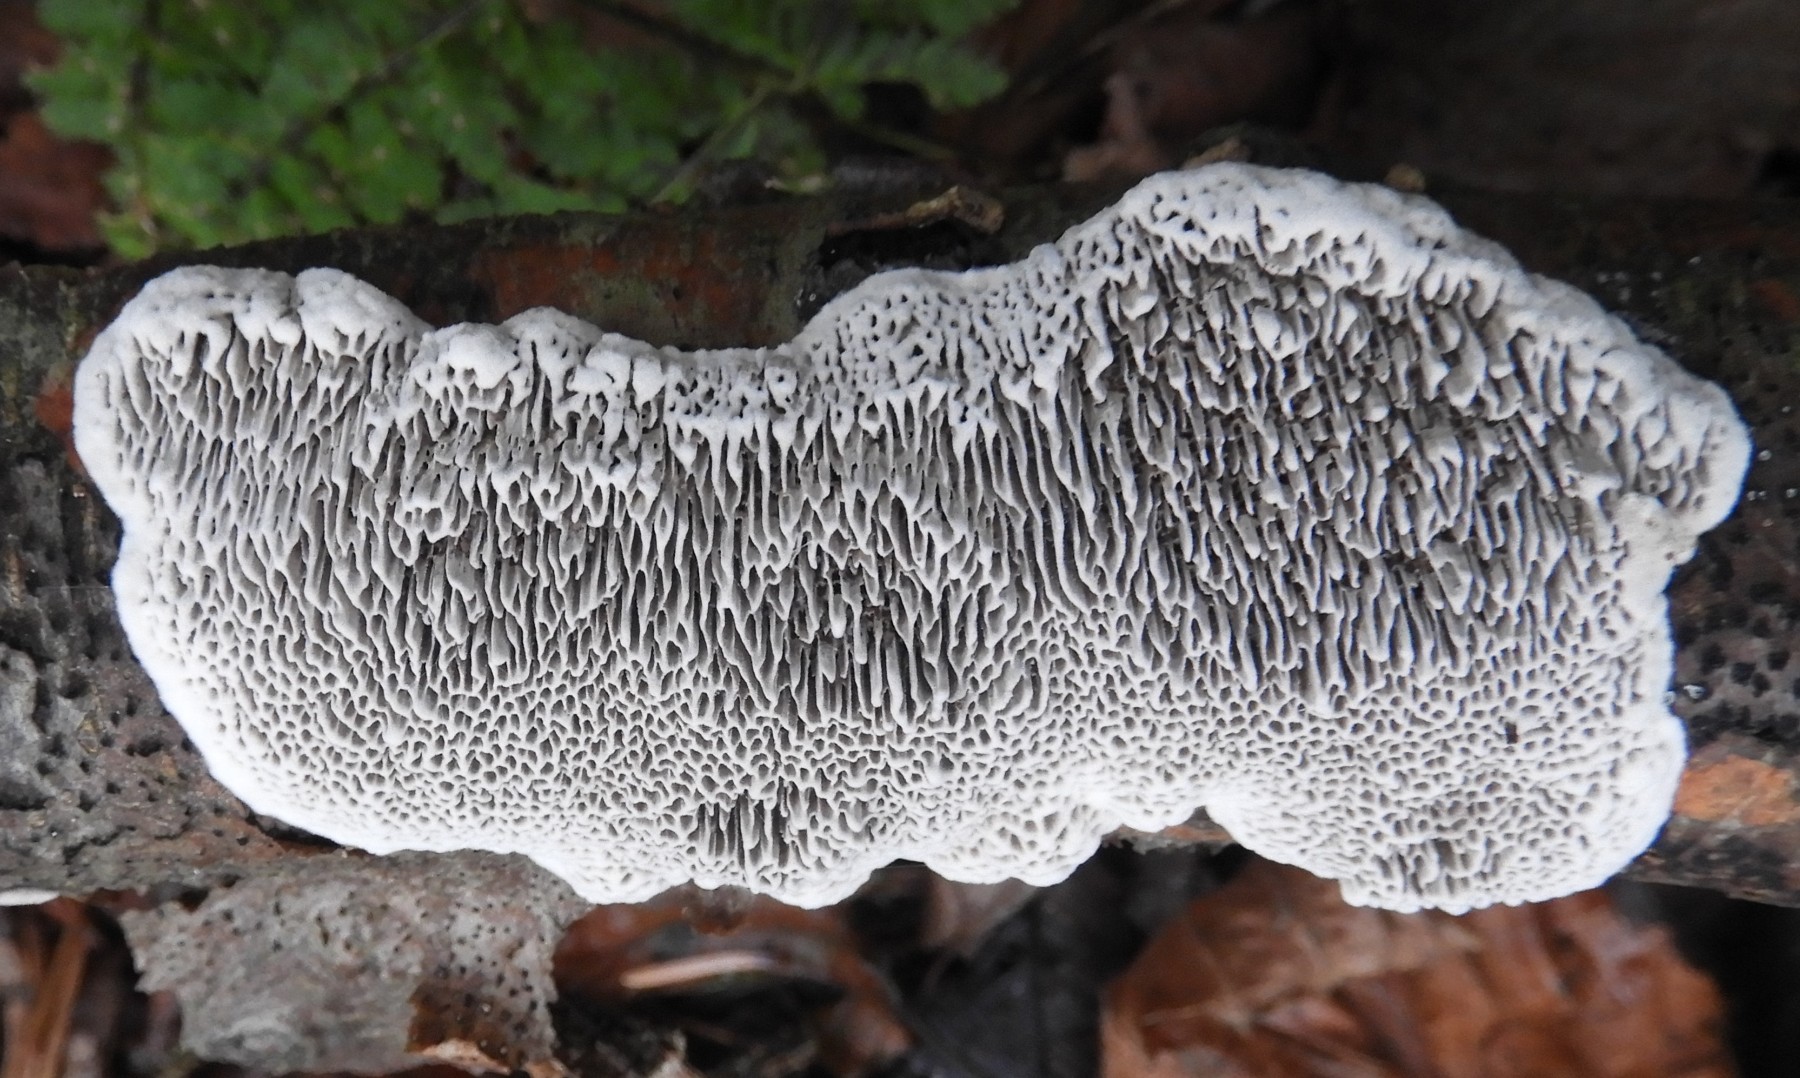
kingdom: Fungi
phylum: Basidiomycota
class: Agaricomycetes
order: Polyporales
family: Polyporaceae
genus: Podofomes
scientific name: Podofomes mollis
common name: blød begporesvamp
